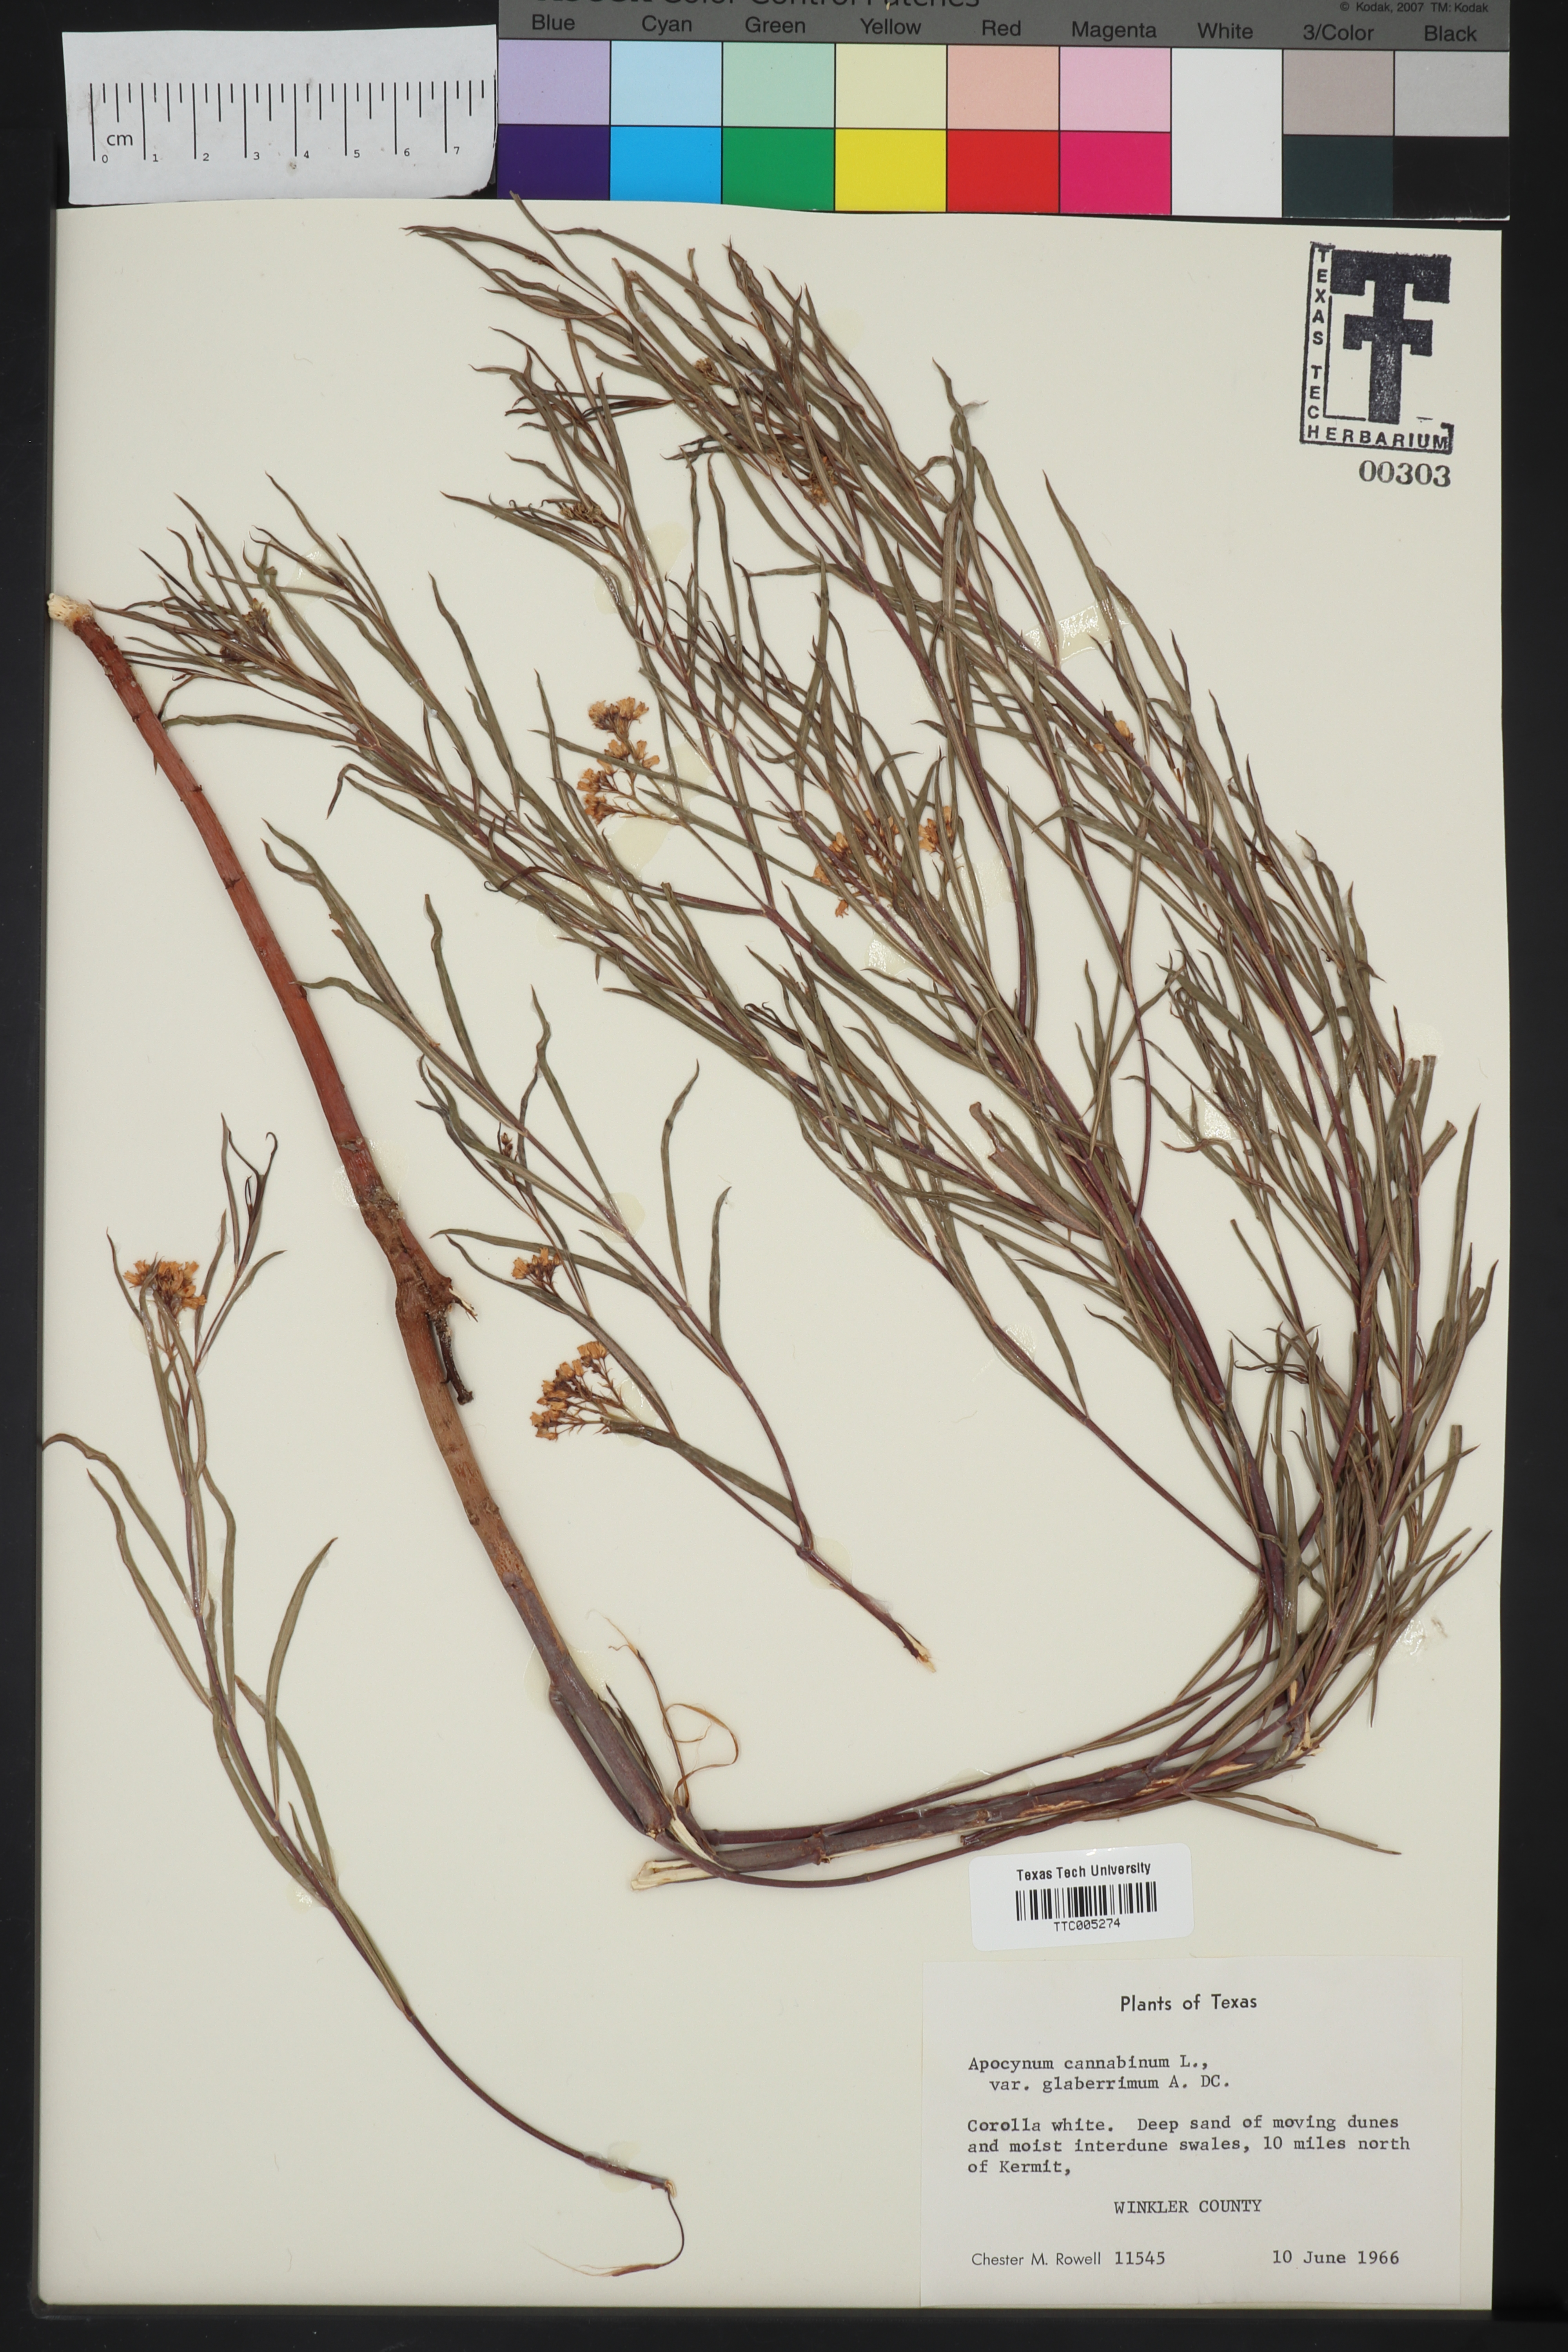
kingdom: Plantae
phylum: Tracheophyta
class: Magnoliopsida
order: Gentianales
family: Apocynaceae
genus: Apocynum
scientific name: Apocynum cannabinum
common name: Hemp dogbane
